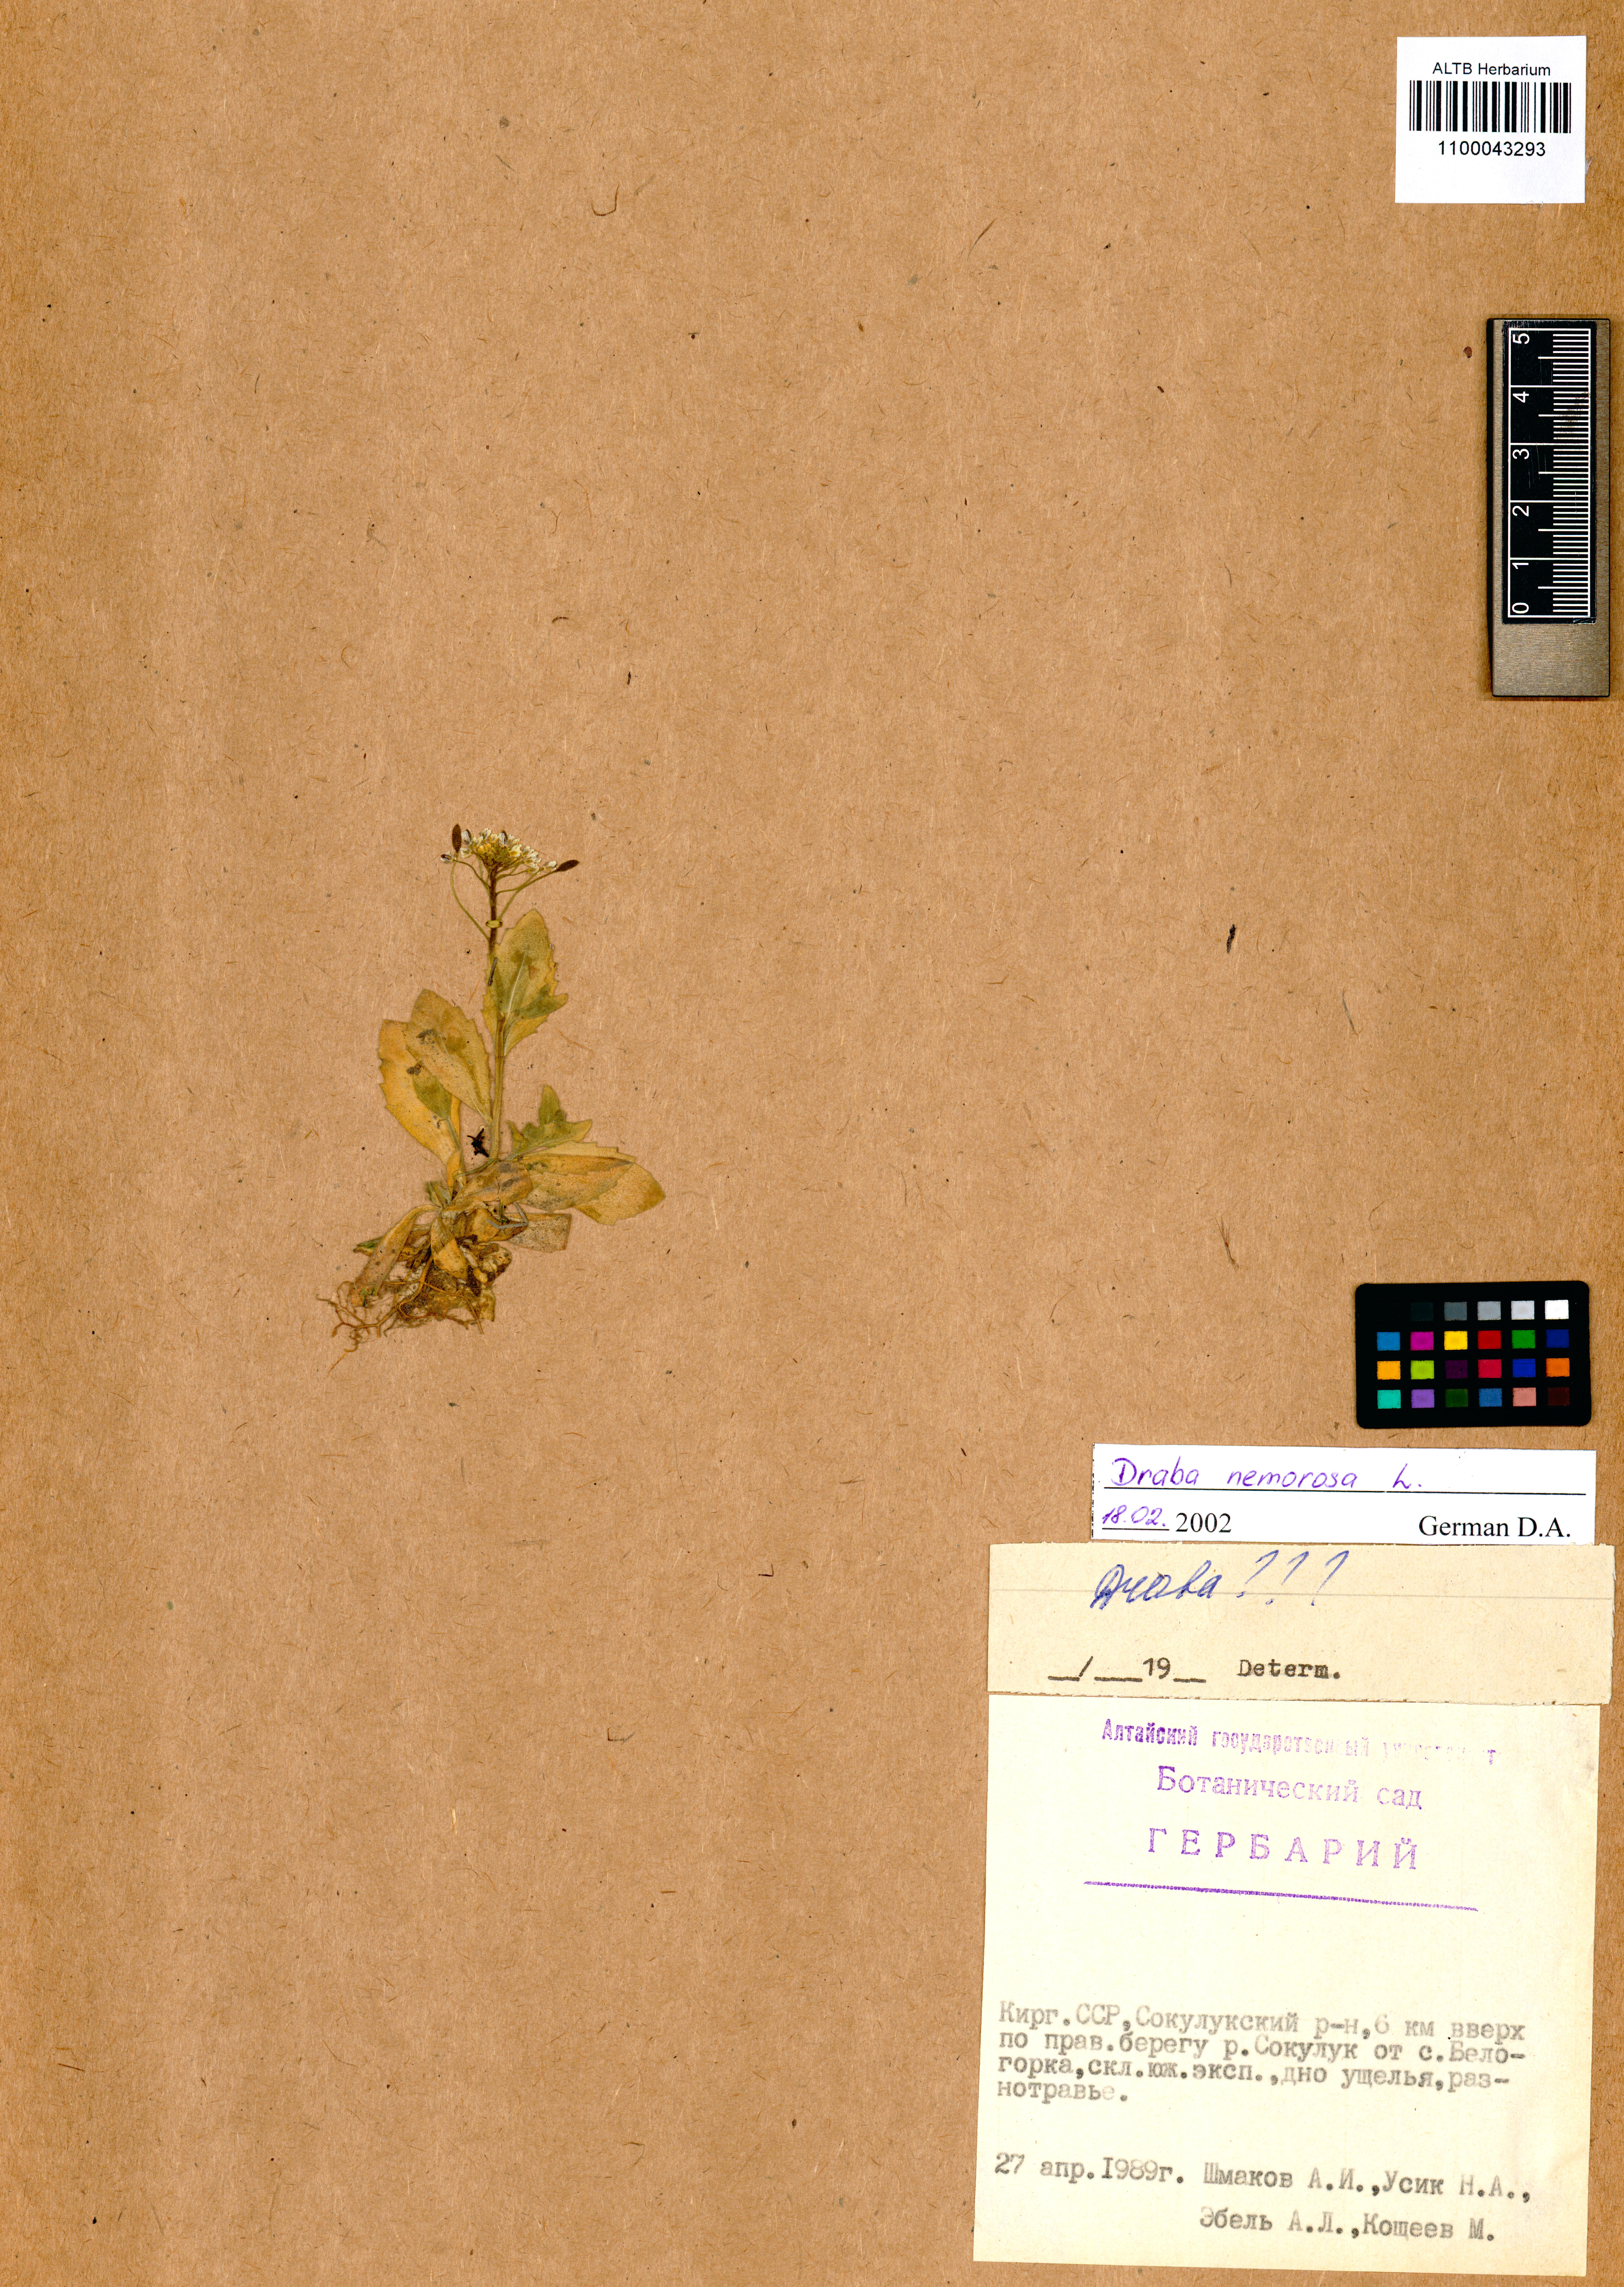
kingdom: Plantae
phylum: Tracheophyta
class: Magnoliopsida
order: Brassicales
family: Brassicaceae
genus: Draba
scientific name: Draba nemorosa
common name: Wood whitlow-grass
